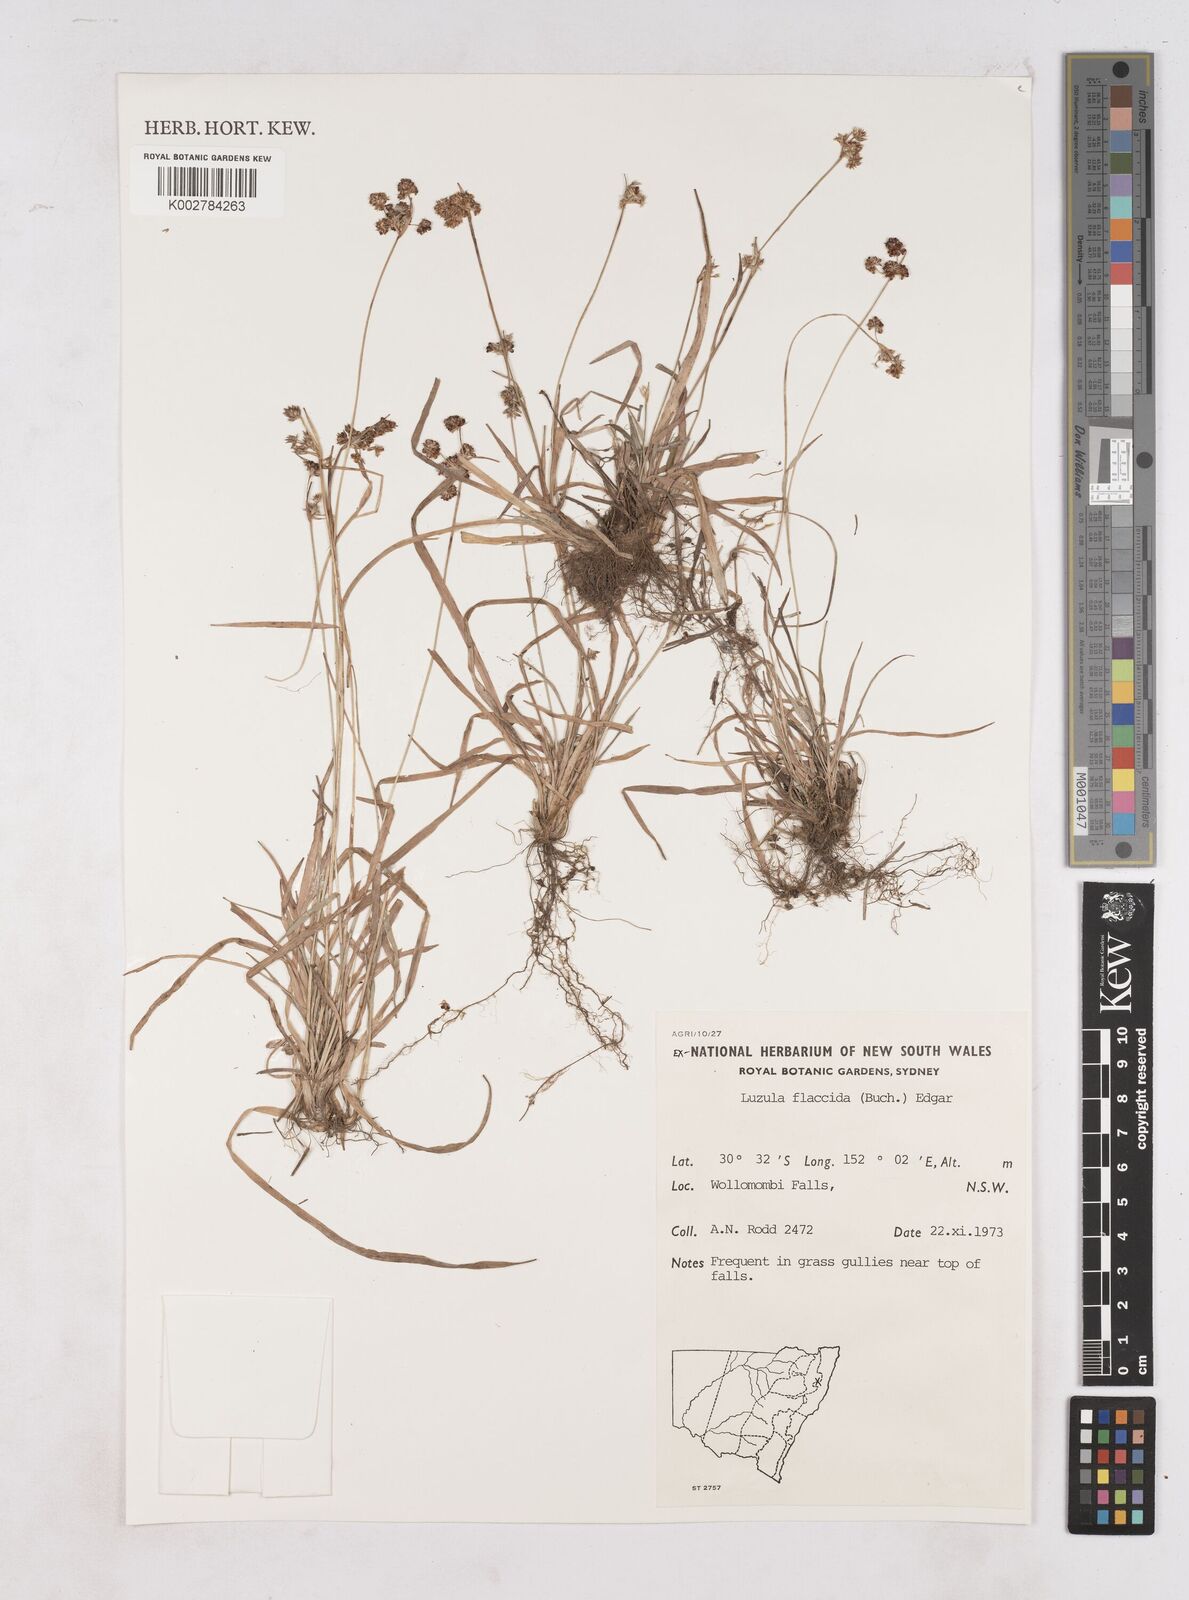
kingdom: Plantae
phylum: Tracheophyta
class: Liliopsida
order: Poales
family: Juncaceae
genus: Luzula
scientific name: Luzula flaccida
